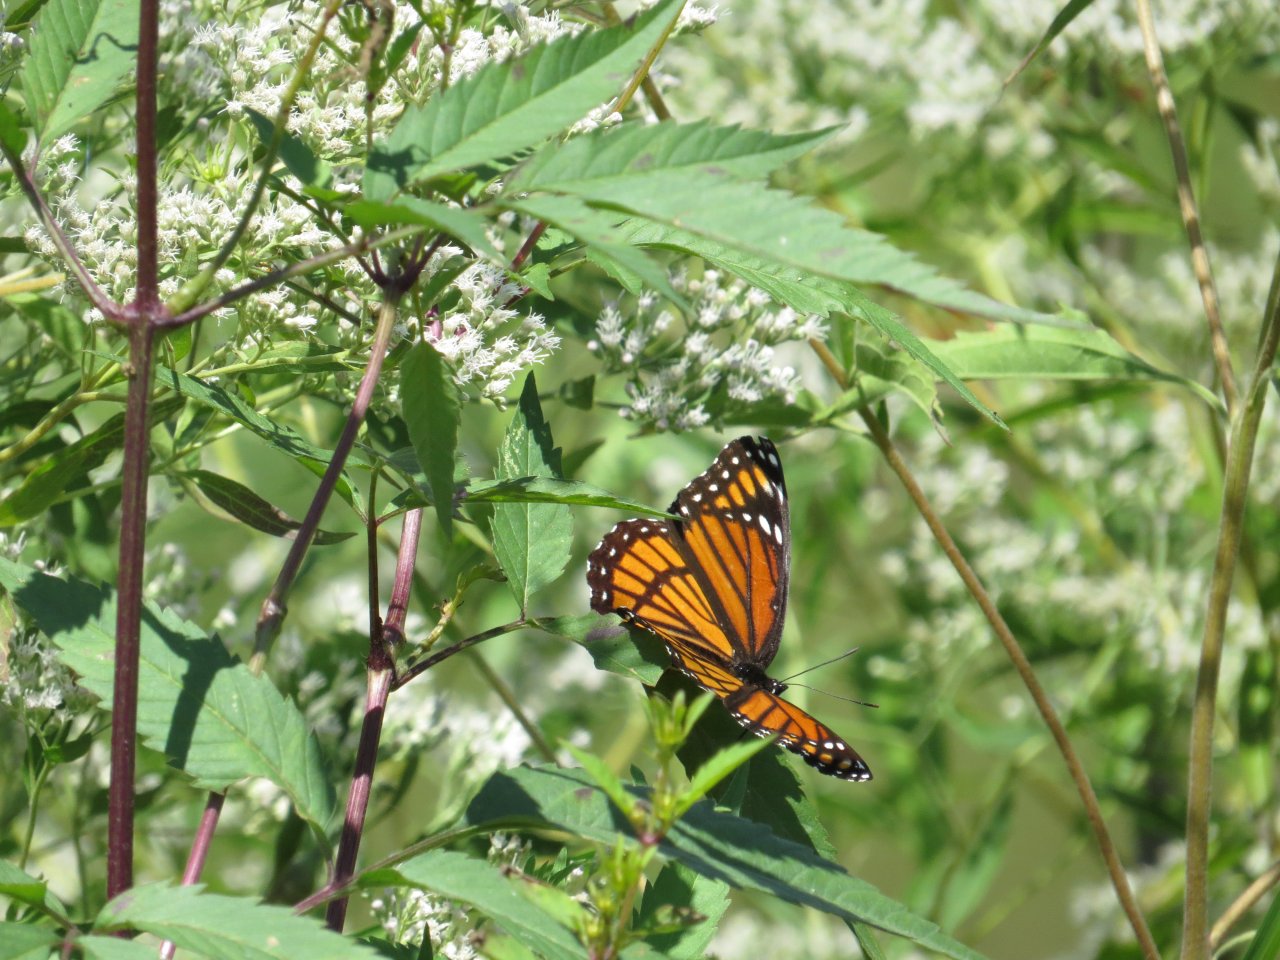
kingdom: Animalia
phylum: Arthropoda
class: Insecta
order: Lepidoptera
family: Nymphalidae
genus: Limenitis
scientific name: Limenitis archippus
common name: Viceroy
